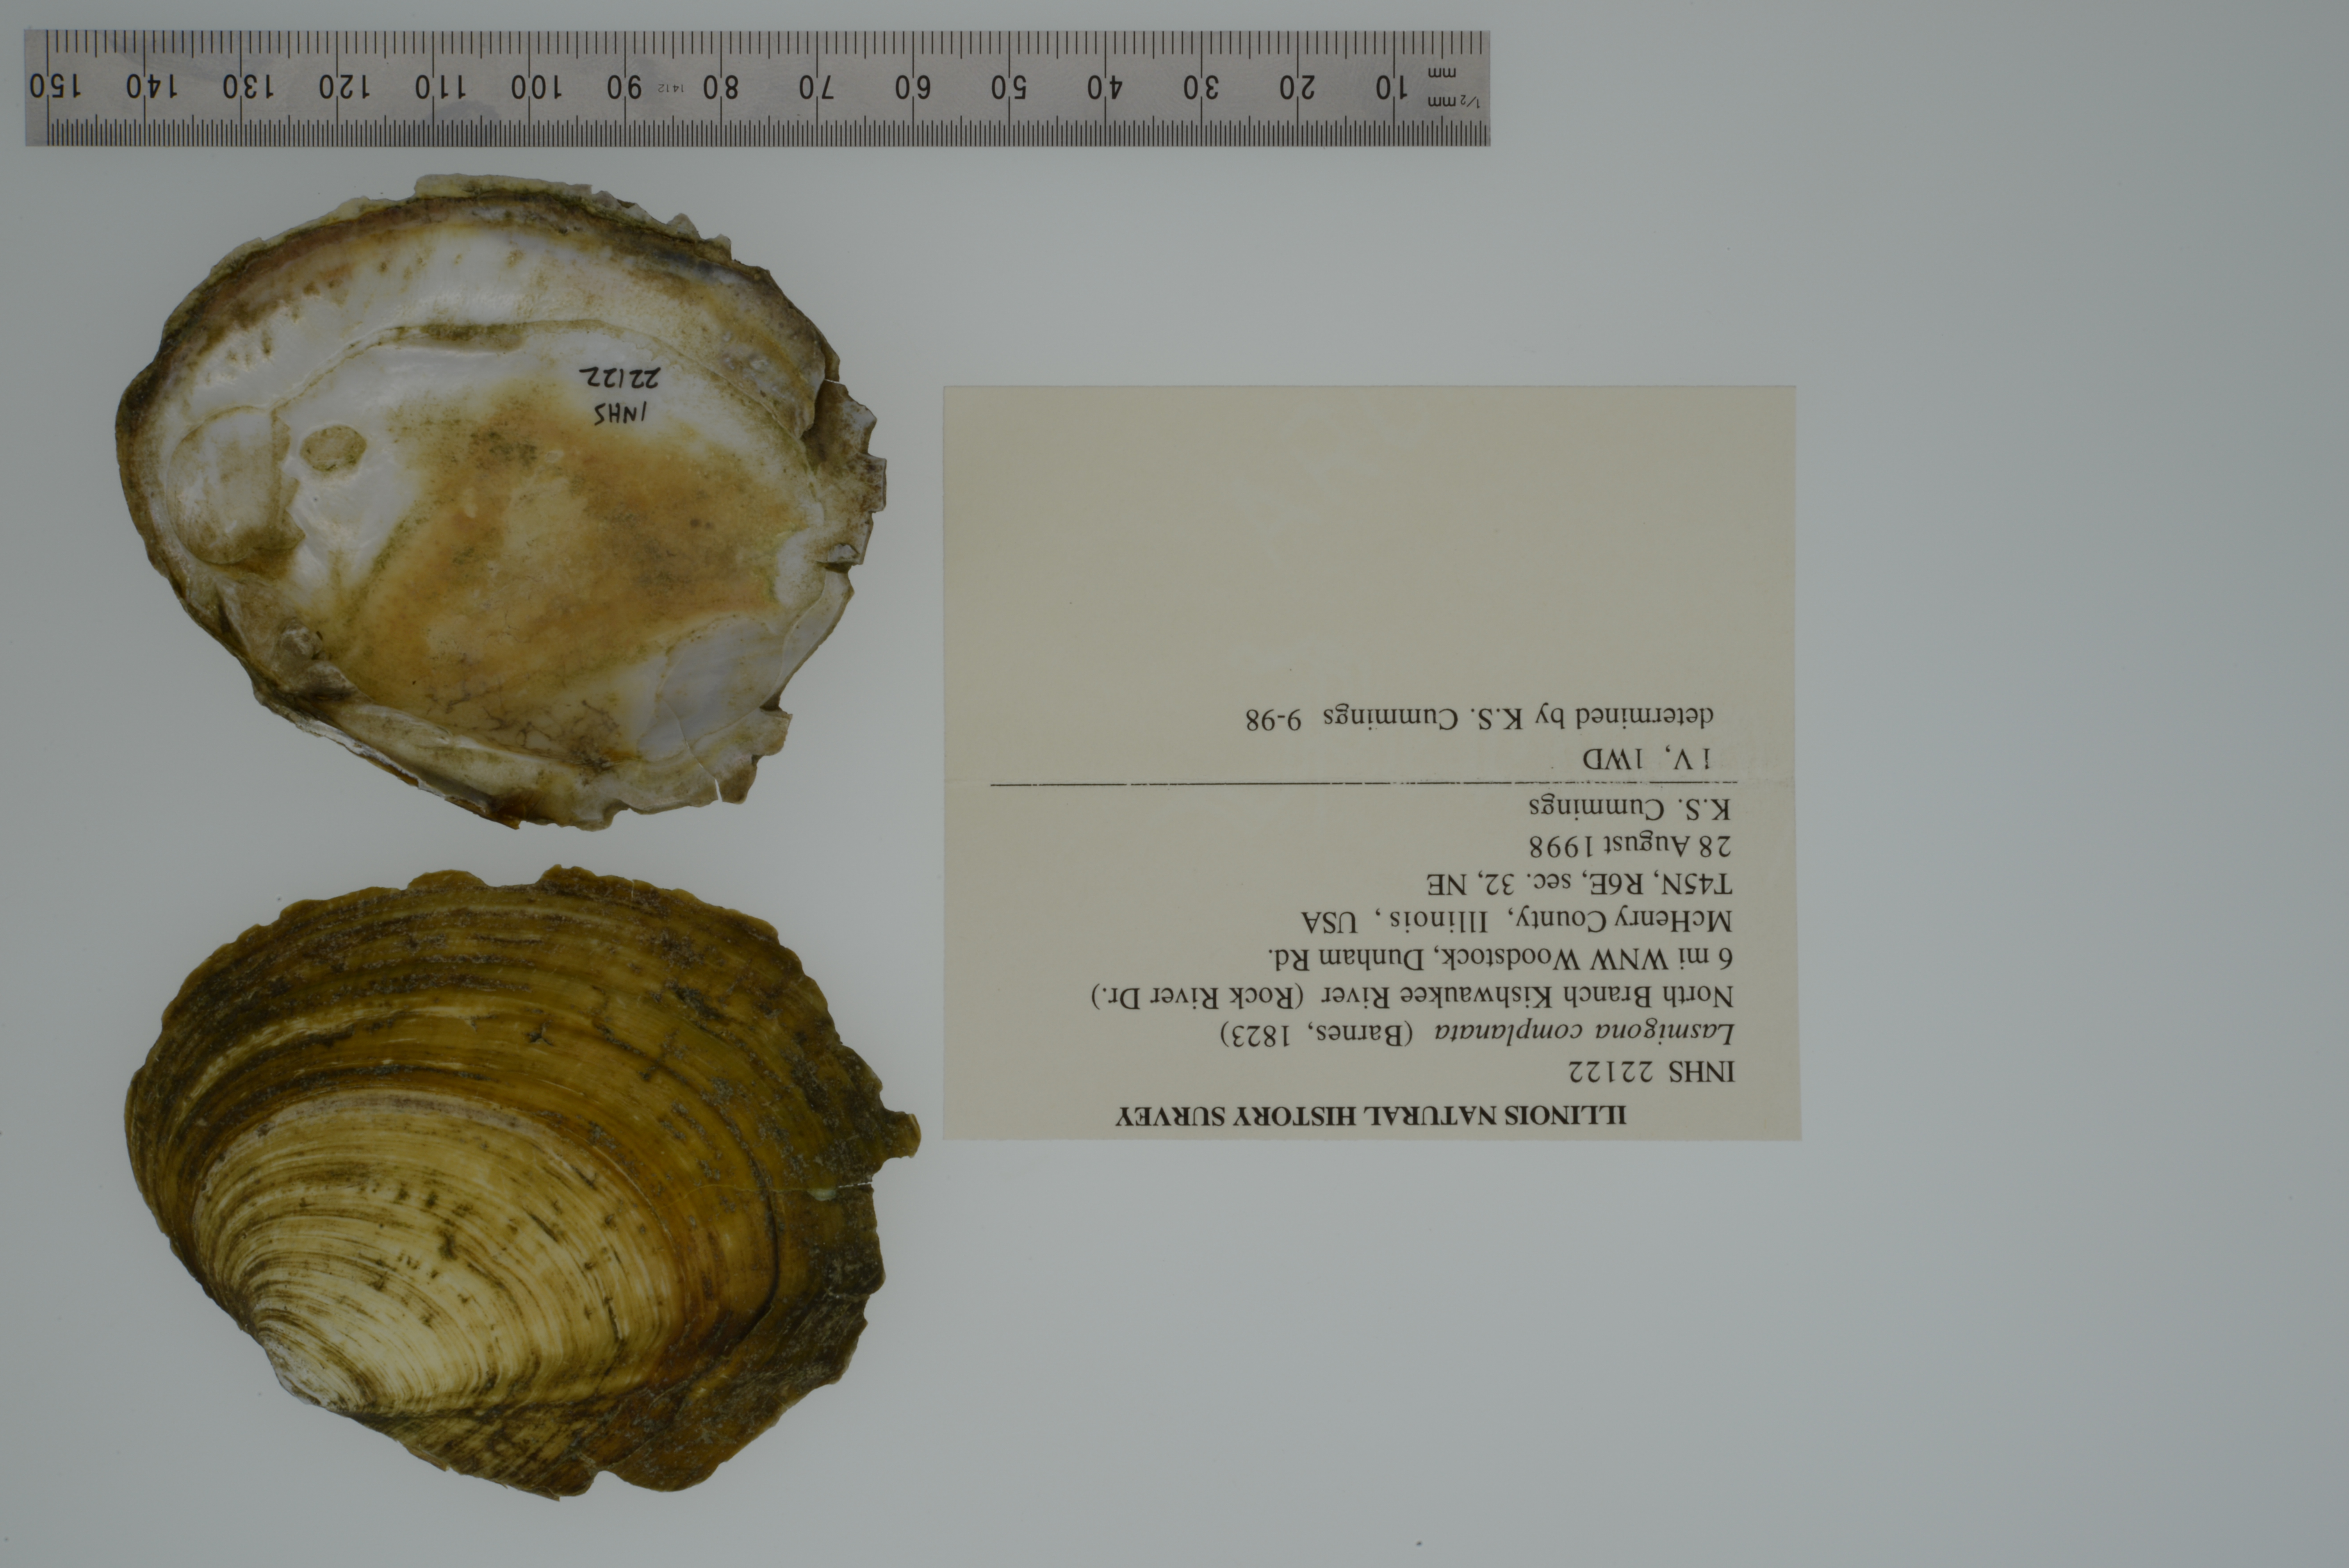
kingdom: Animalia
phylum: Mollusca
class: Bivalvia
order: Unionida
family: Unionidae
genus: Lasmigona
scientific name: Lasmigona complanata
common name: White heelsplitter
